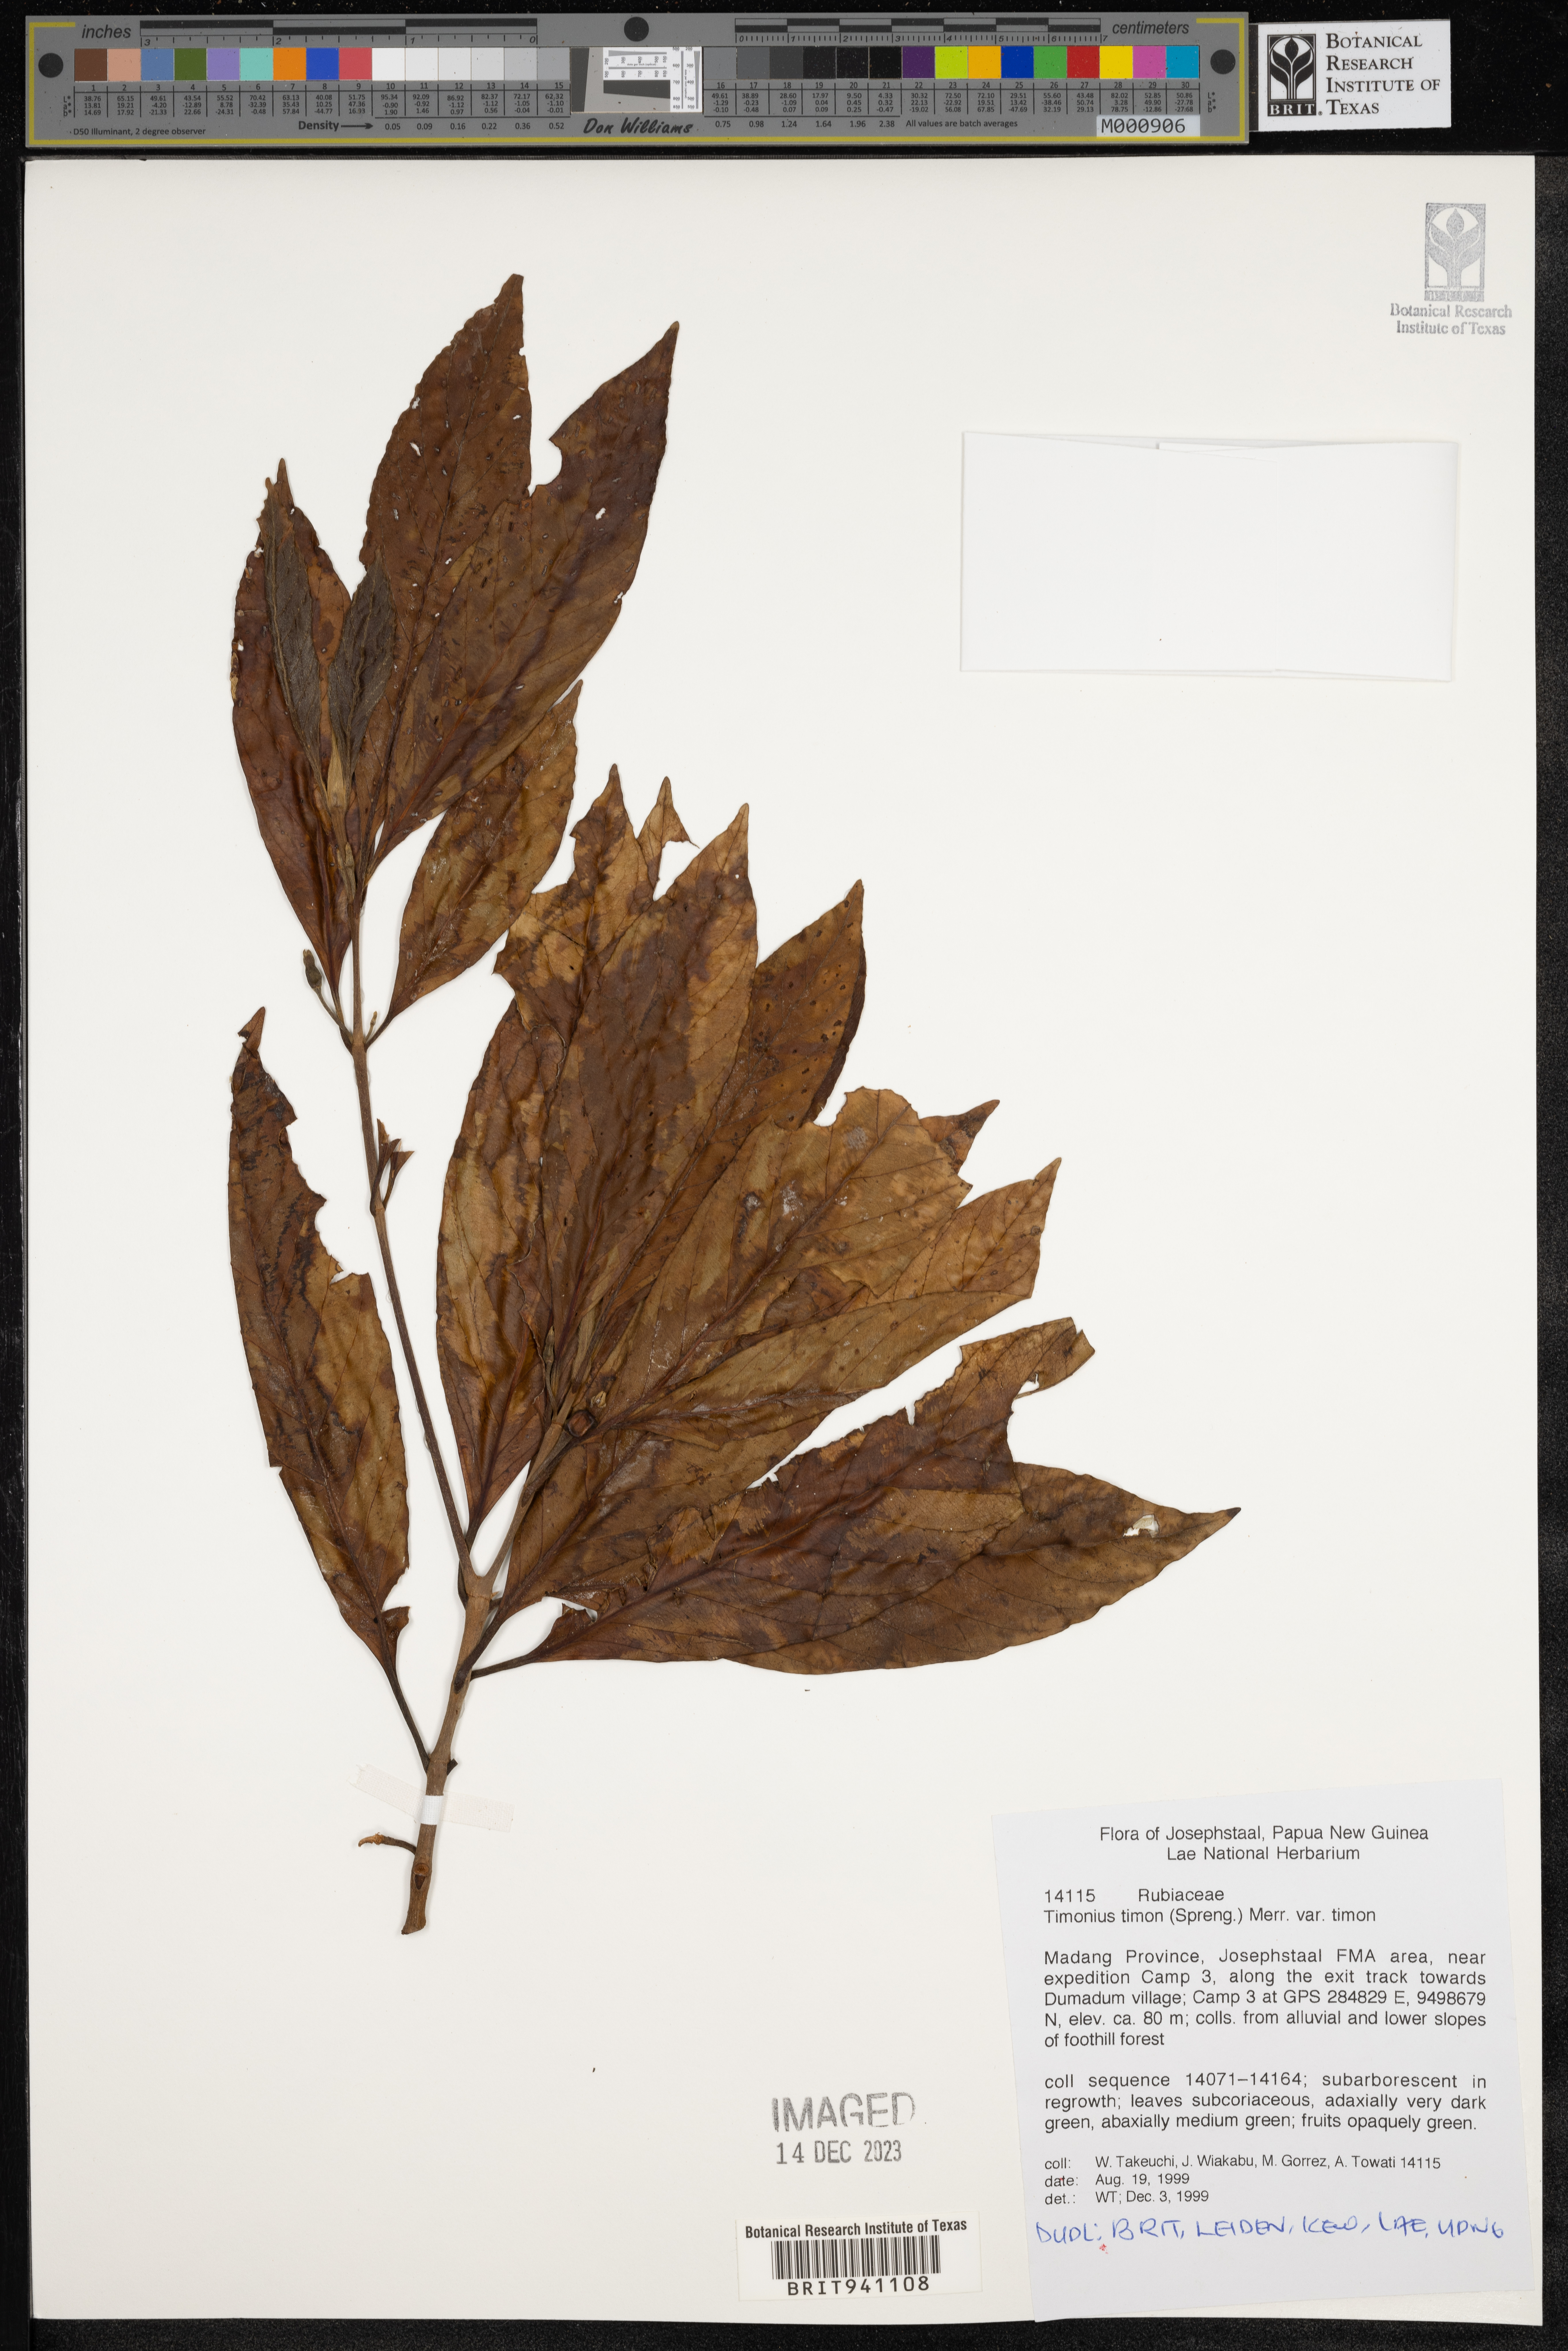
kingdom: Plantae
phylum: Tracheophyta
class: Magnoliopsida
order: Gentianales
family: Rubiaceae
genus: Timonius
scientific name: Timonius
